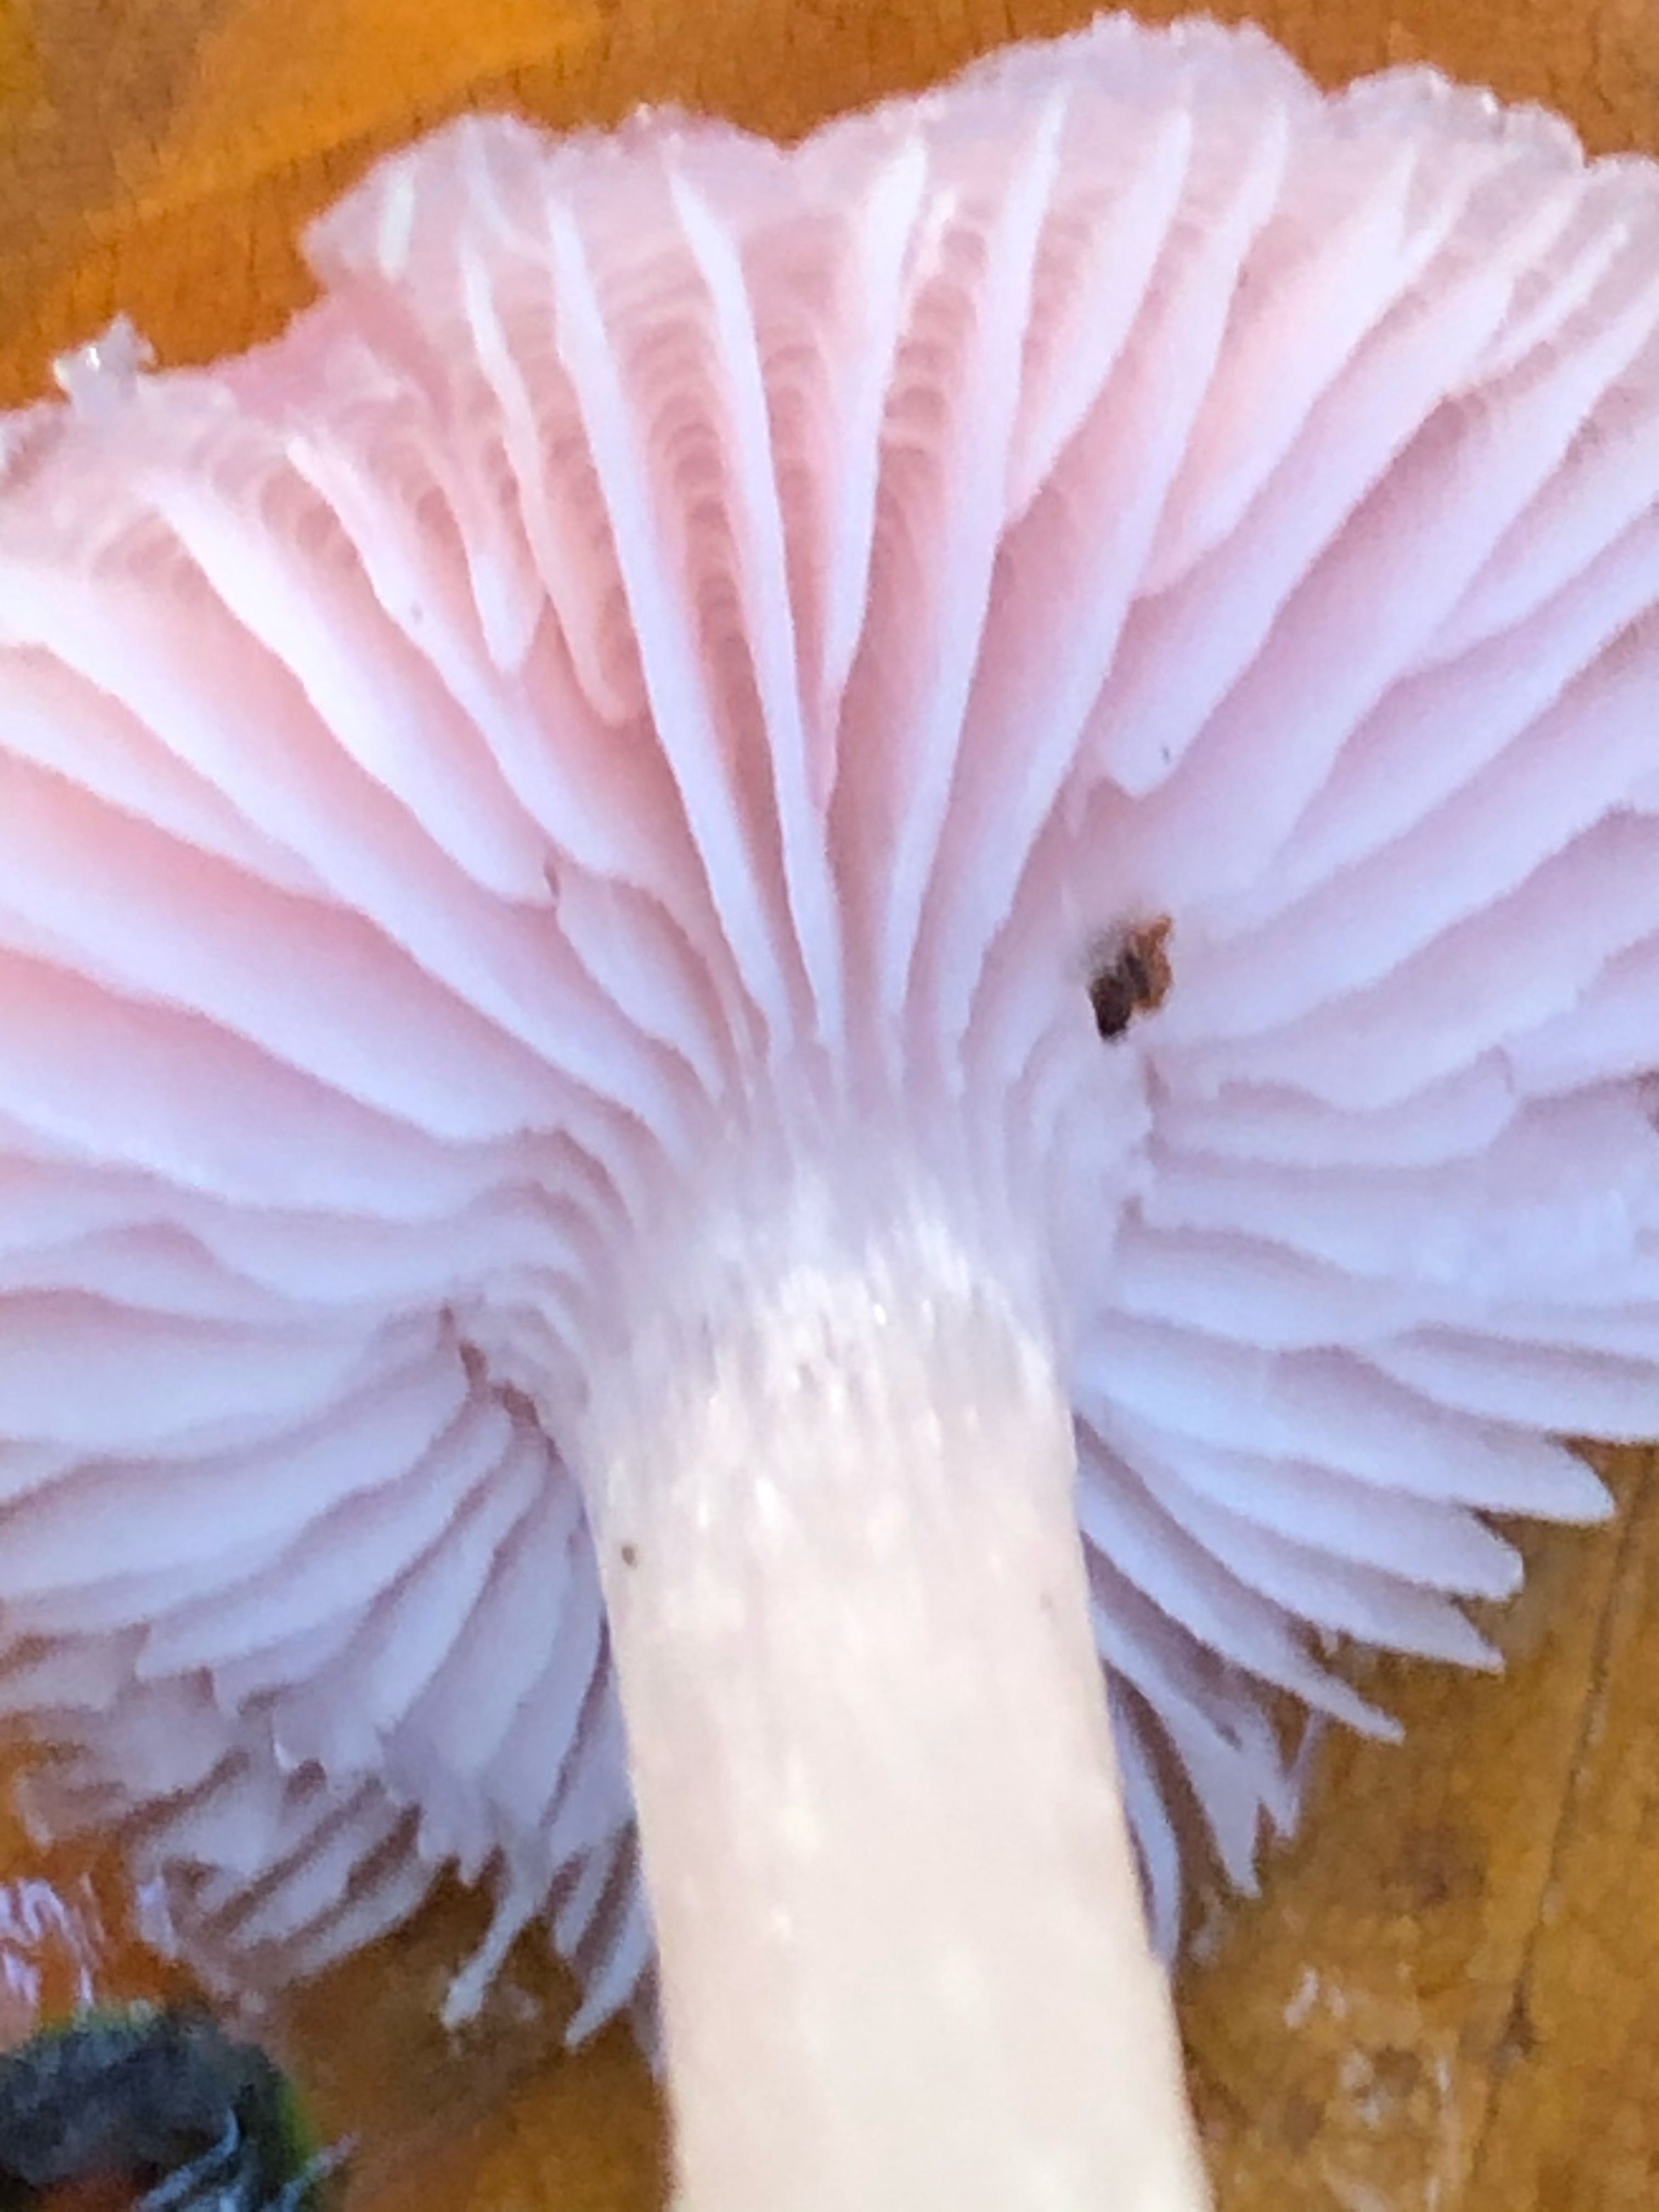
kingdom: Fungi
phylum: Basidiomycota
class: Agaricomycetes
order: Agaricales
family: Mycenaceae
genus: Mycena
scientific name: Mycena rosea
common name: rosa huesvamp
